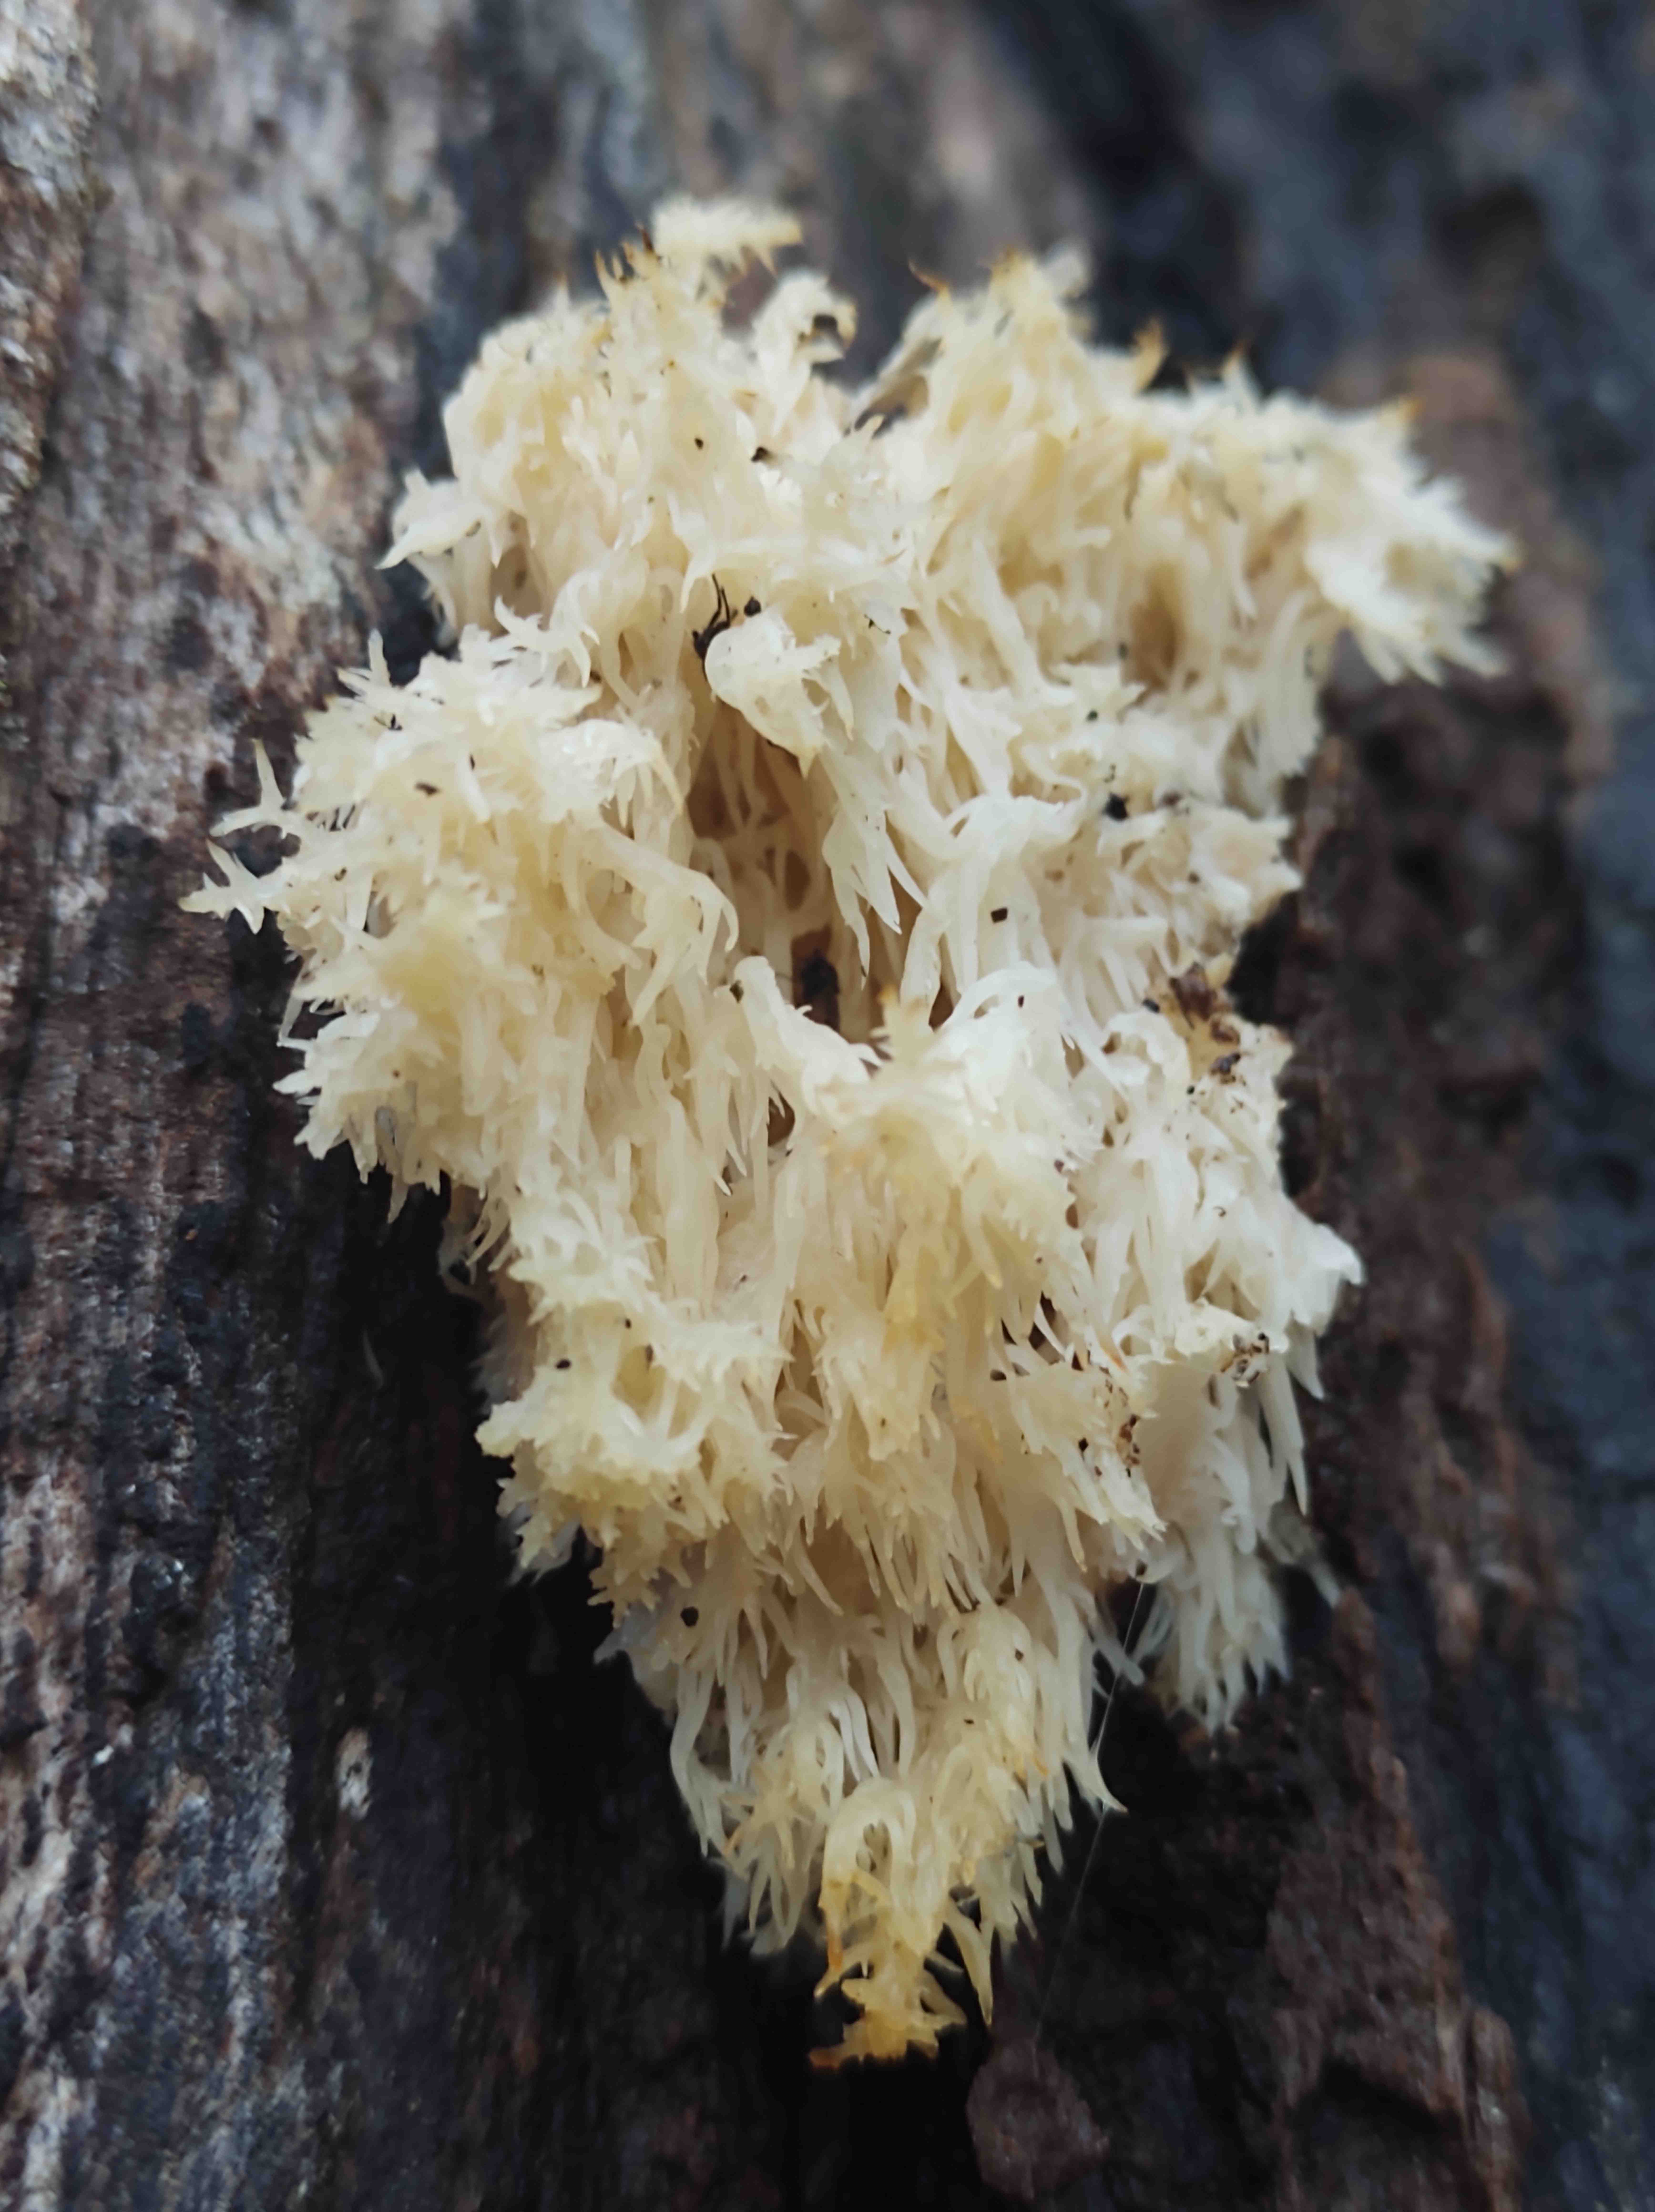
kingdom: Fungi
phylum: Basidiomycota
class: Agaricomycetes
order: Russulales
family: Hericiaceae
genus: Hericium
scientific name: Hericium coralloides
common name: koralpigsvamp
